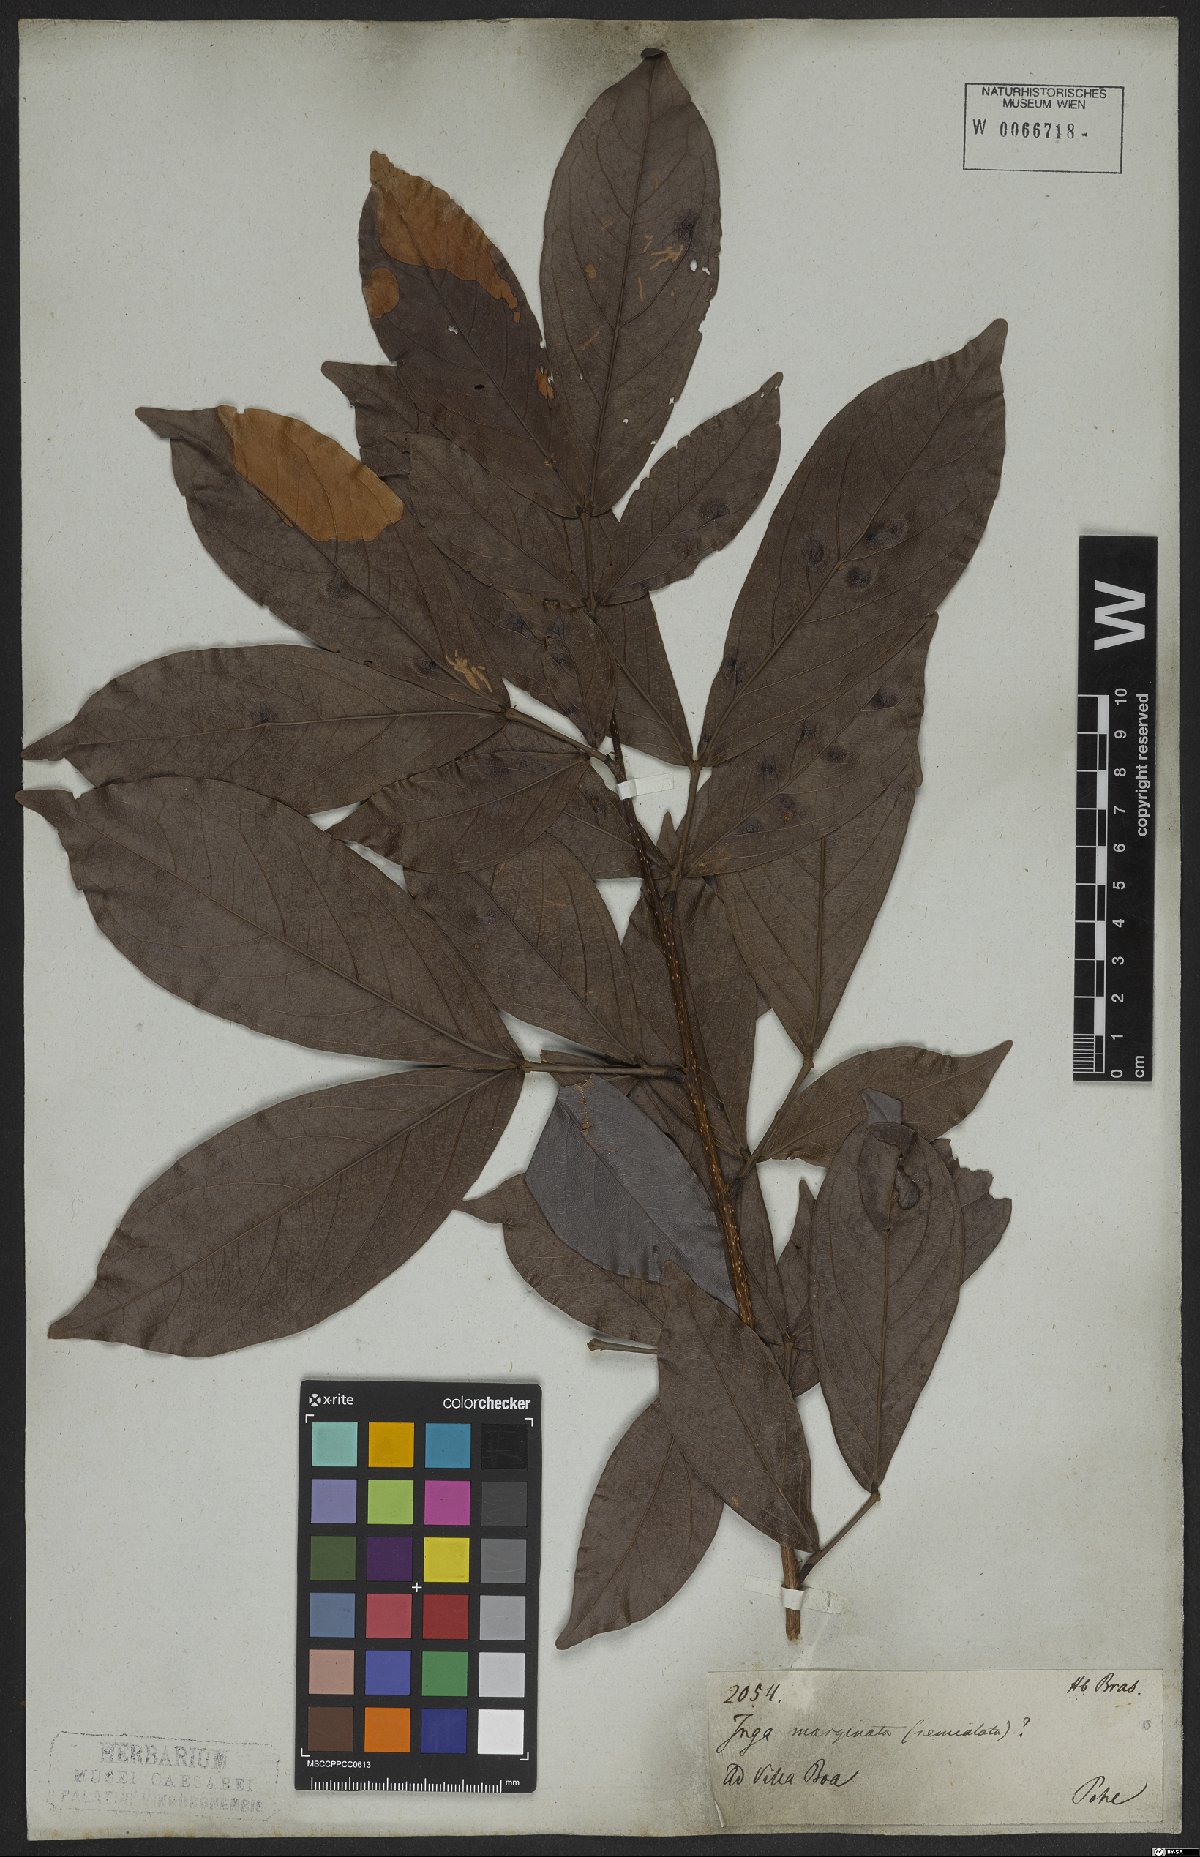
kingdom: Plantae
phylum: Tracheophyta
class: Magnoliopsida
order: Fabales
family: Fabaceae
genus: Inga
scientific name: Inga marginata
